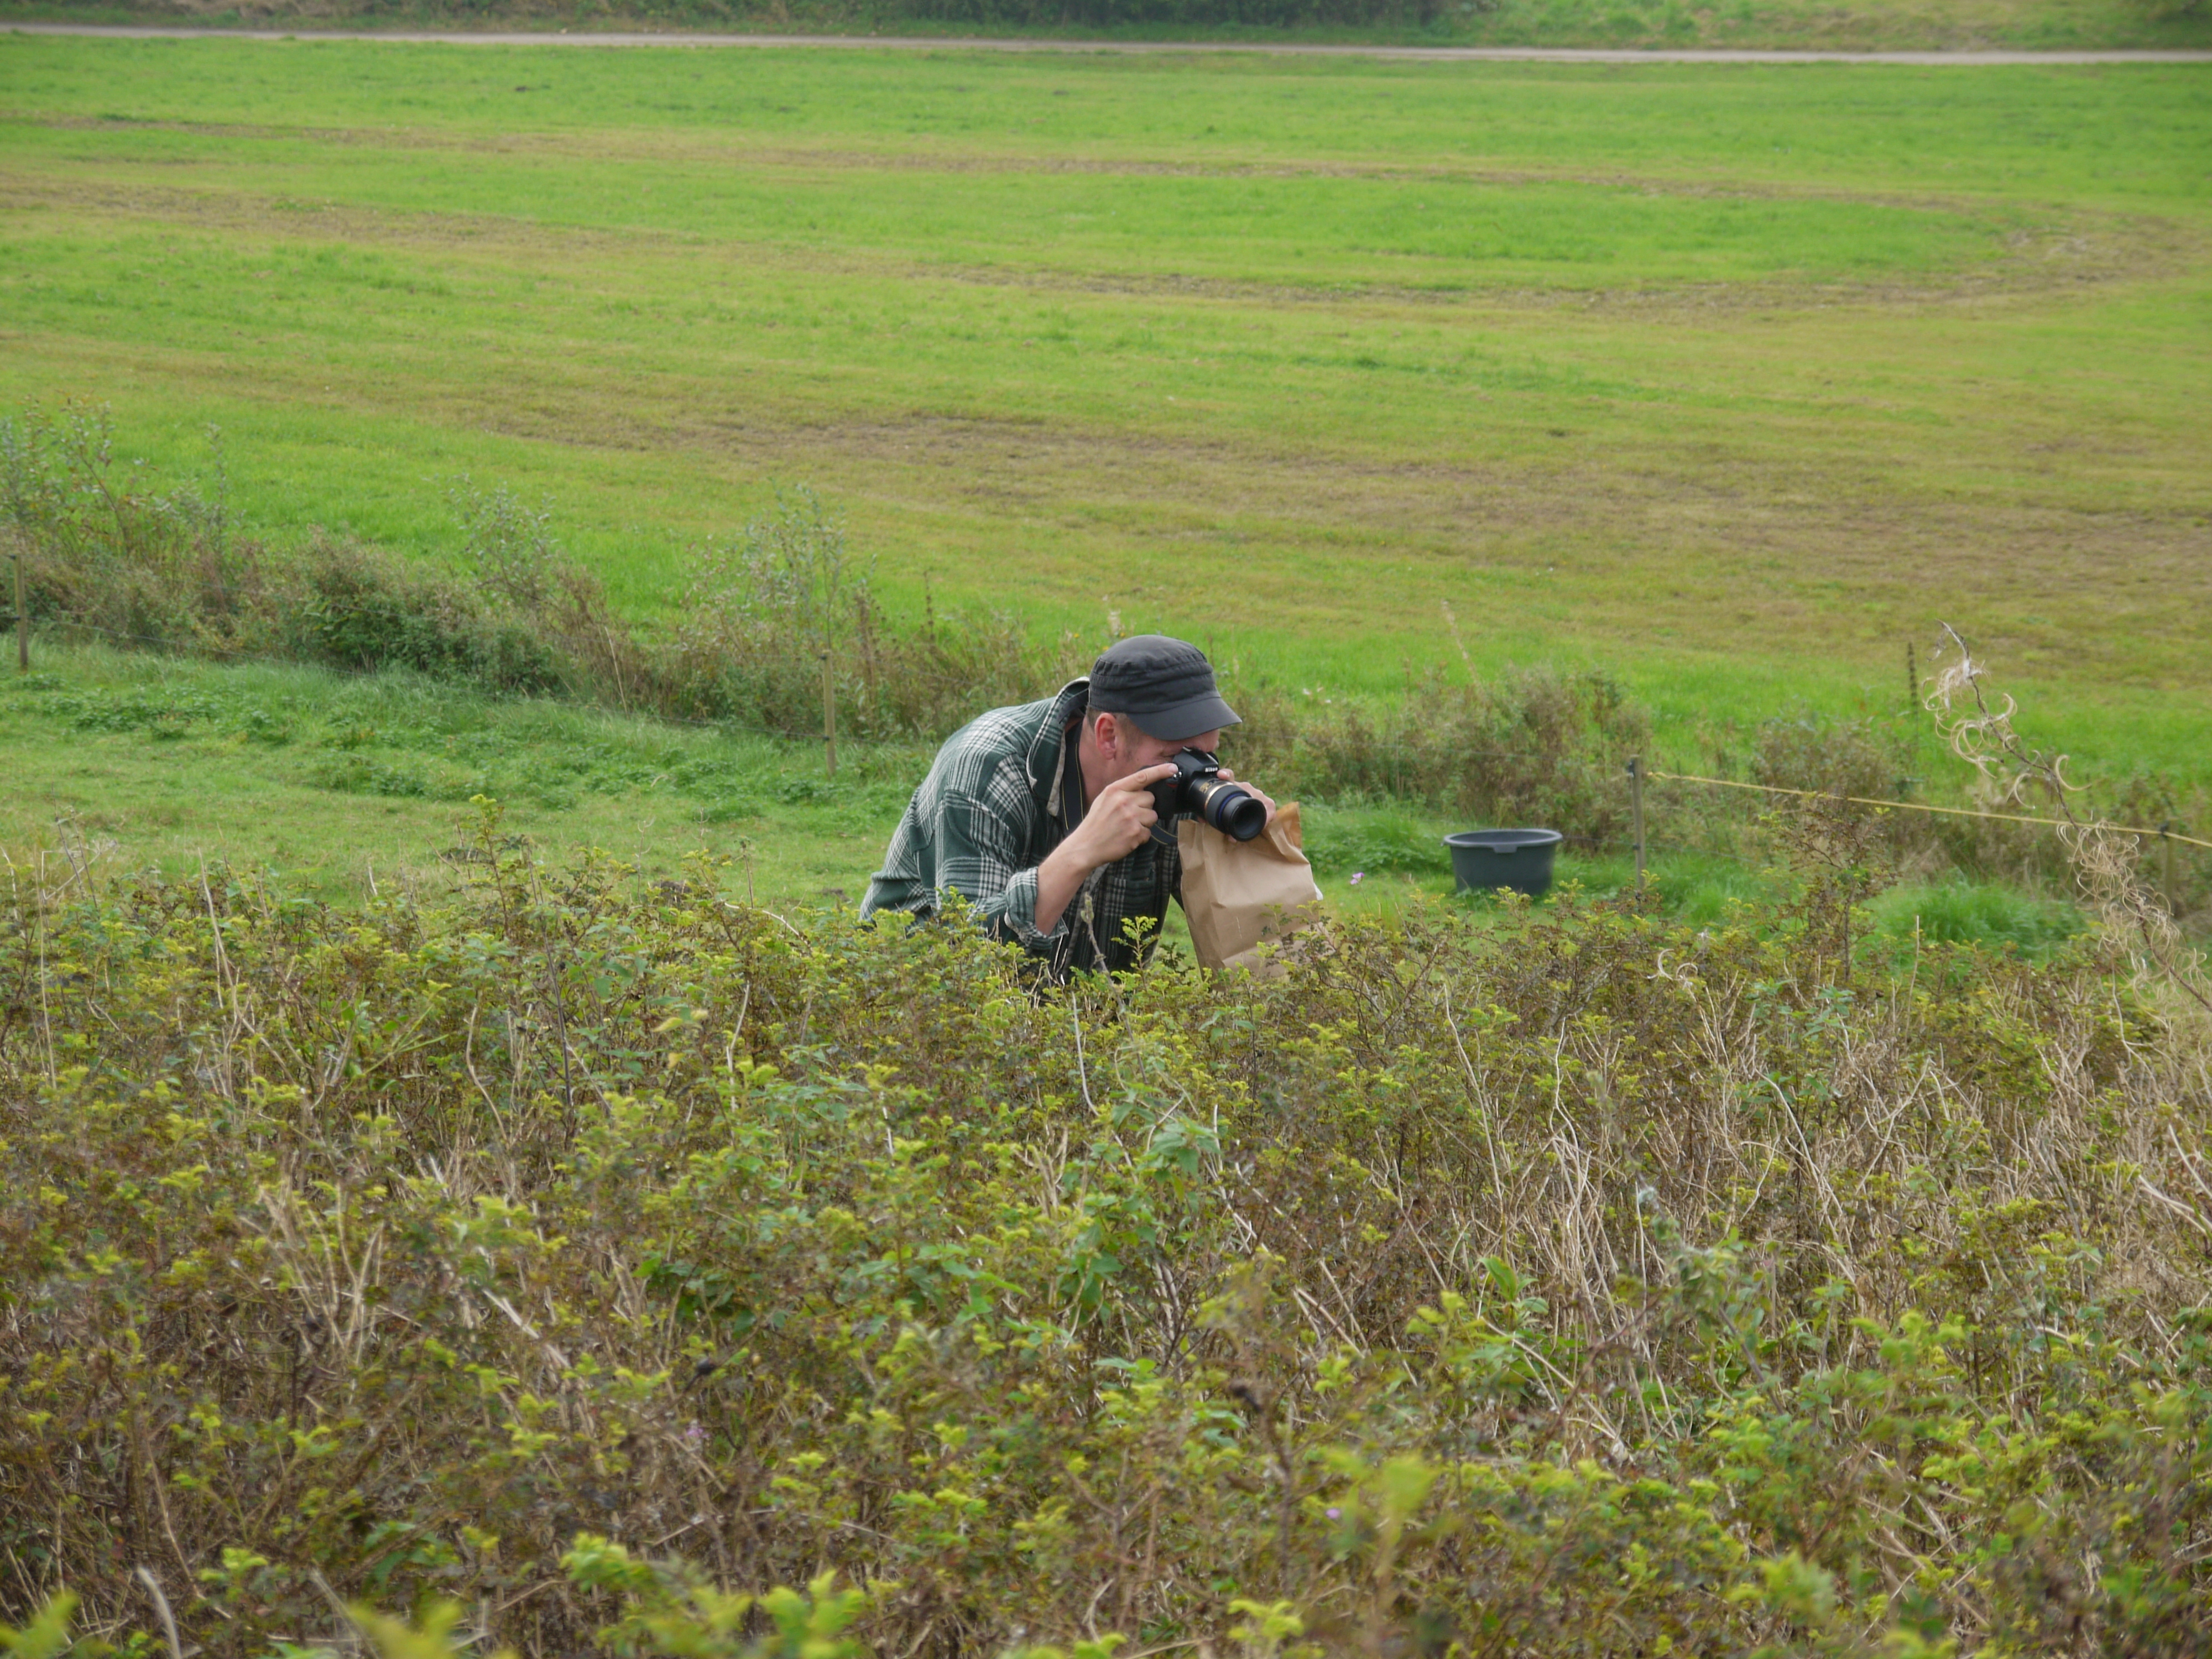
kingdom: Plantae
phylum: Tracheophyta
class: Magnoliopsida
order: Brassicales
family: Brassicaceae
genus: Hesperis
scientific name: Hesperis matronalis
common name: Dame's-violet
